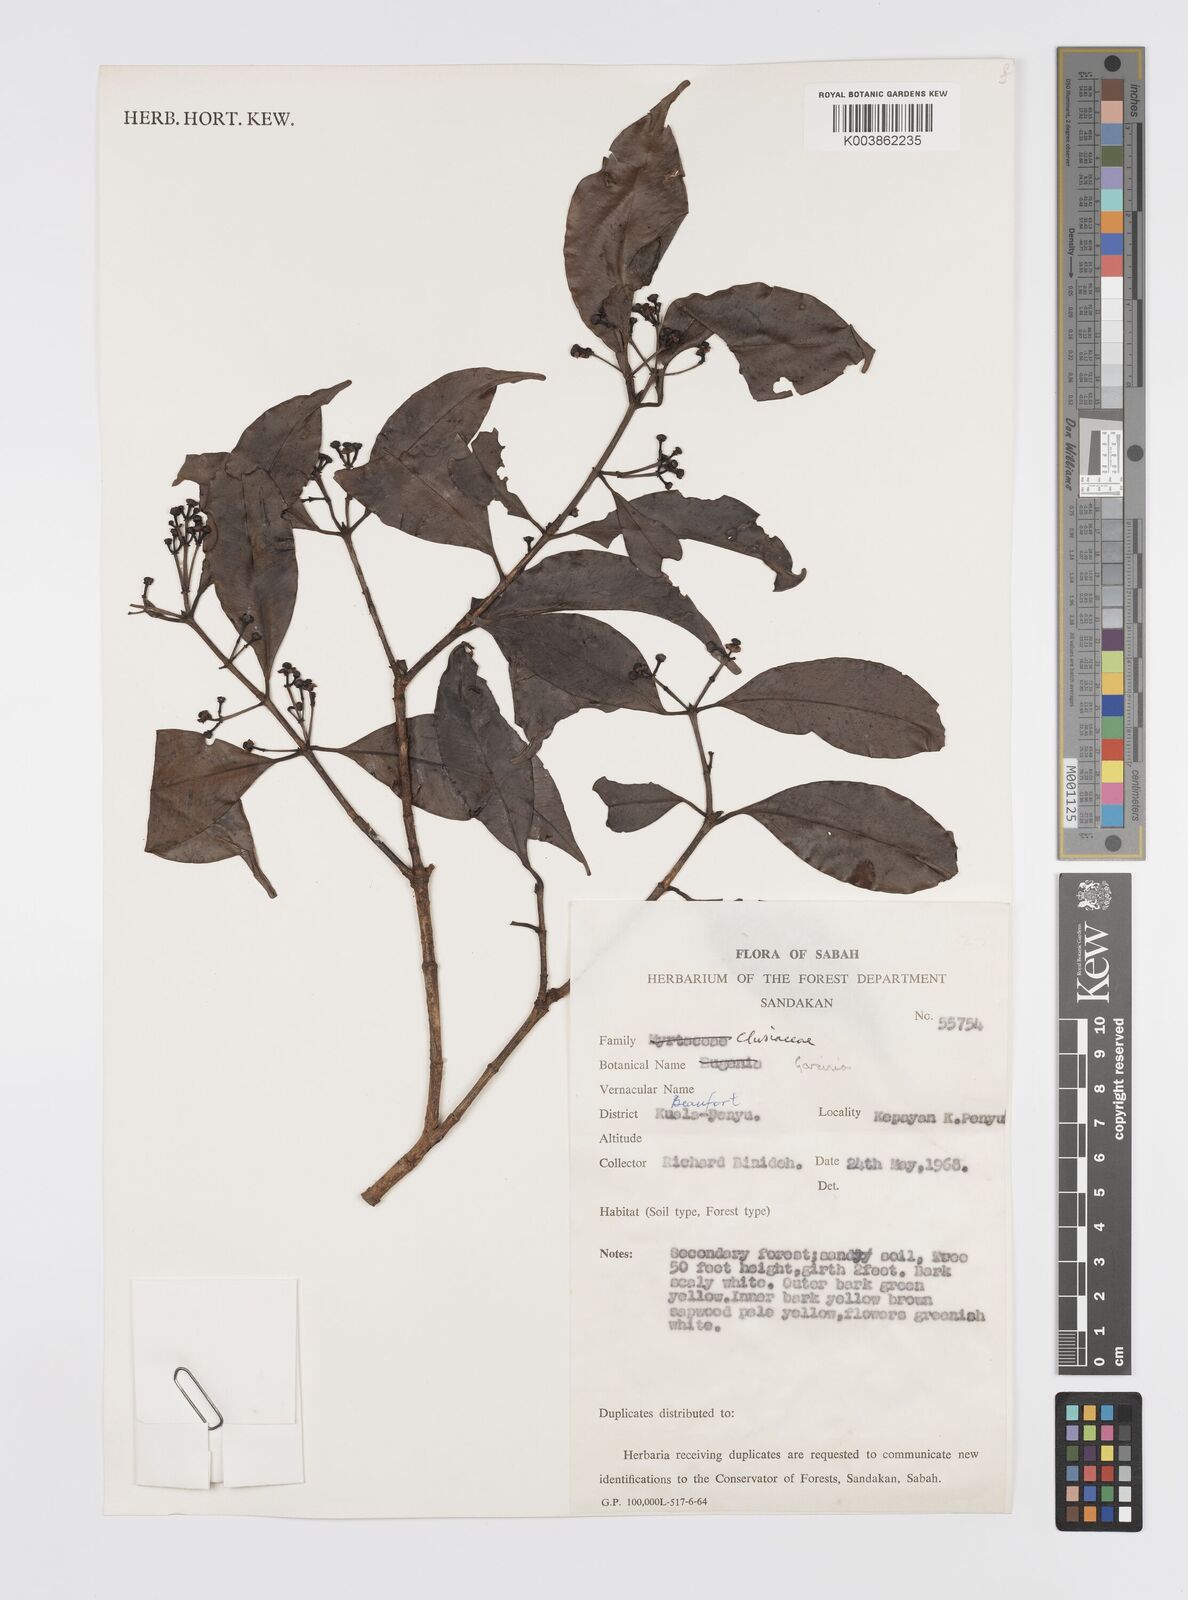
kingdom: Plantae
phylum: Tracheophyta
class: Magnoliopsida
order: Malpighiales
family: Clusiaceae
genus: Garcinia
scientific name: Garcinia
